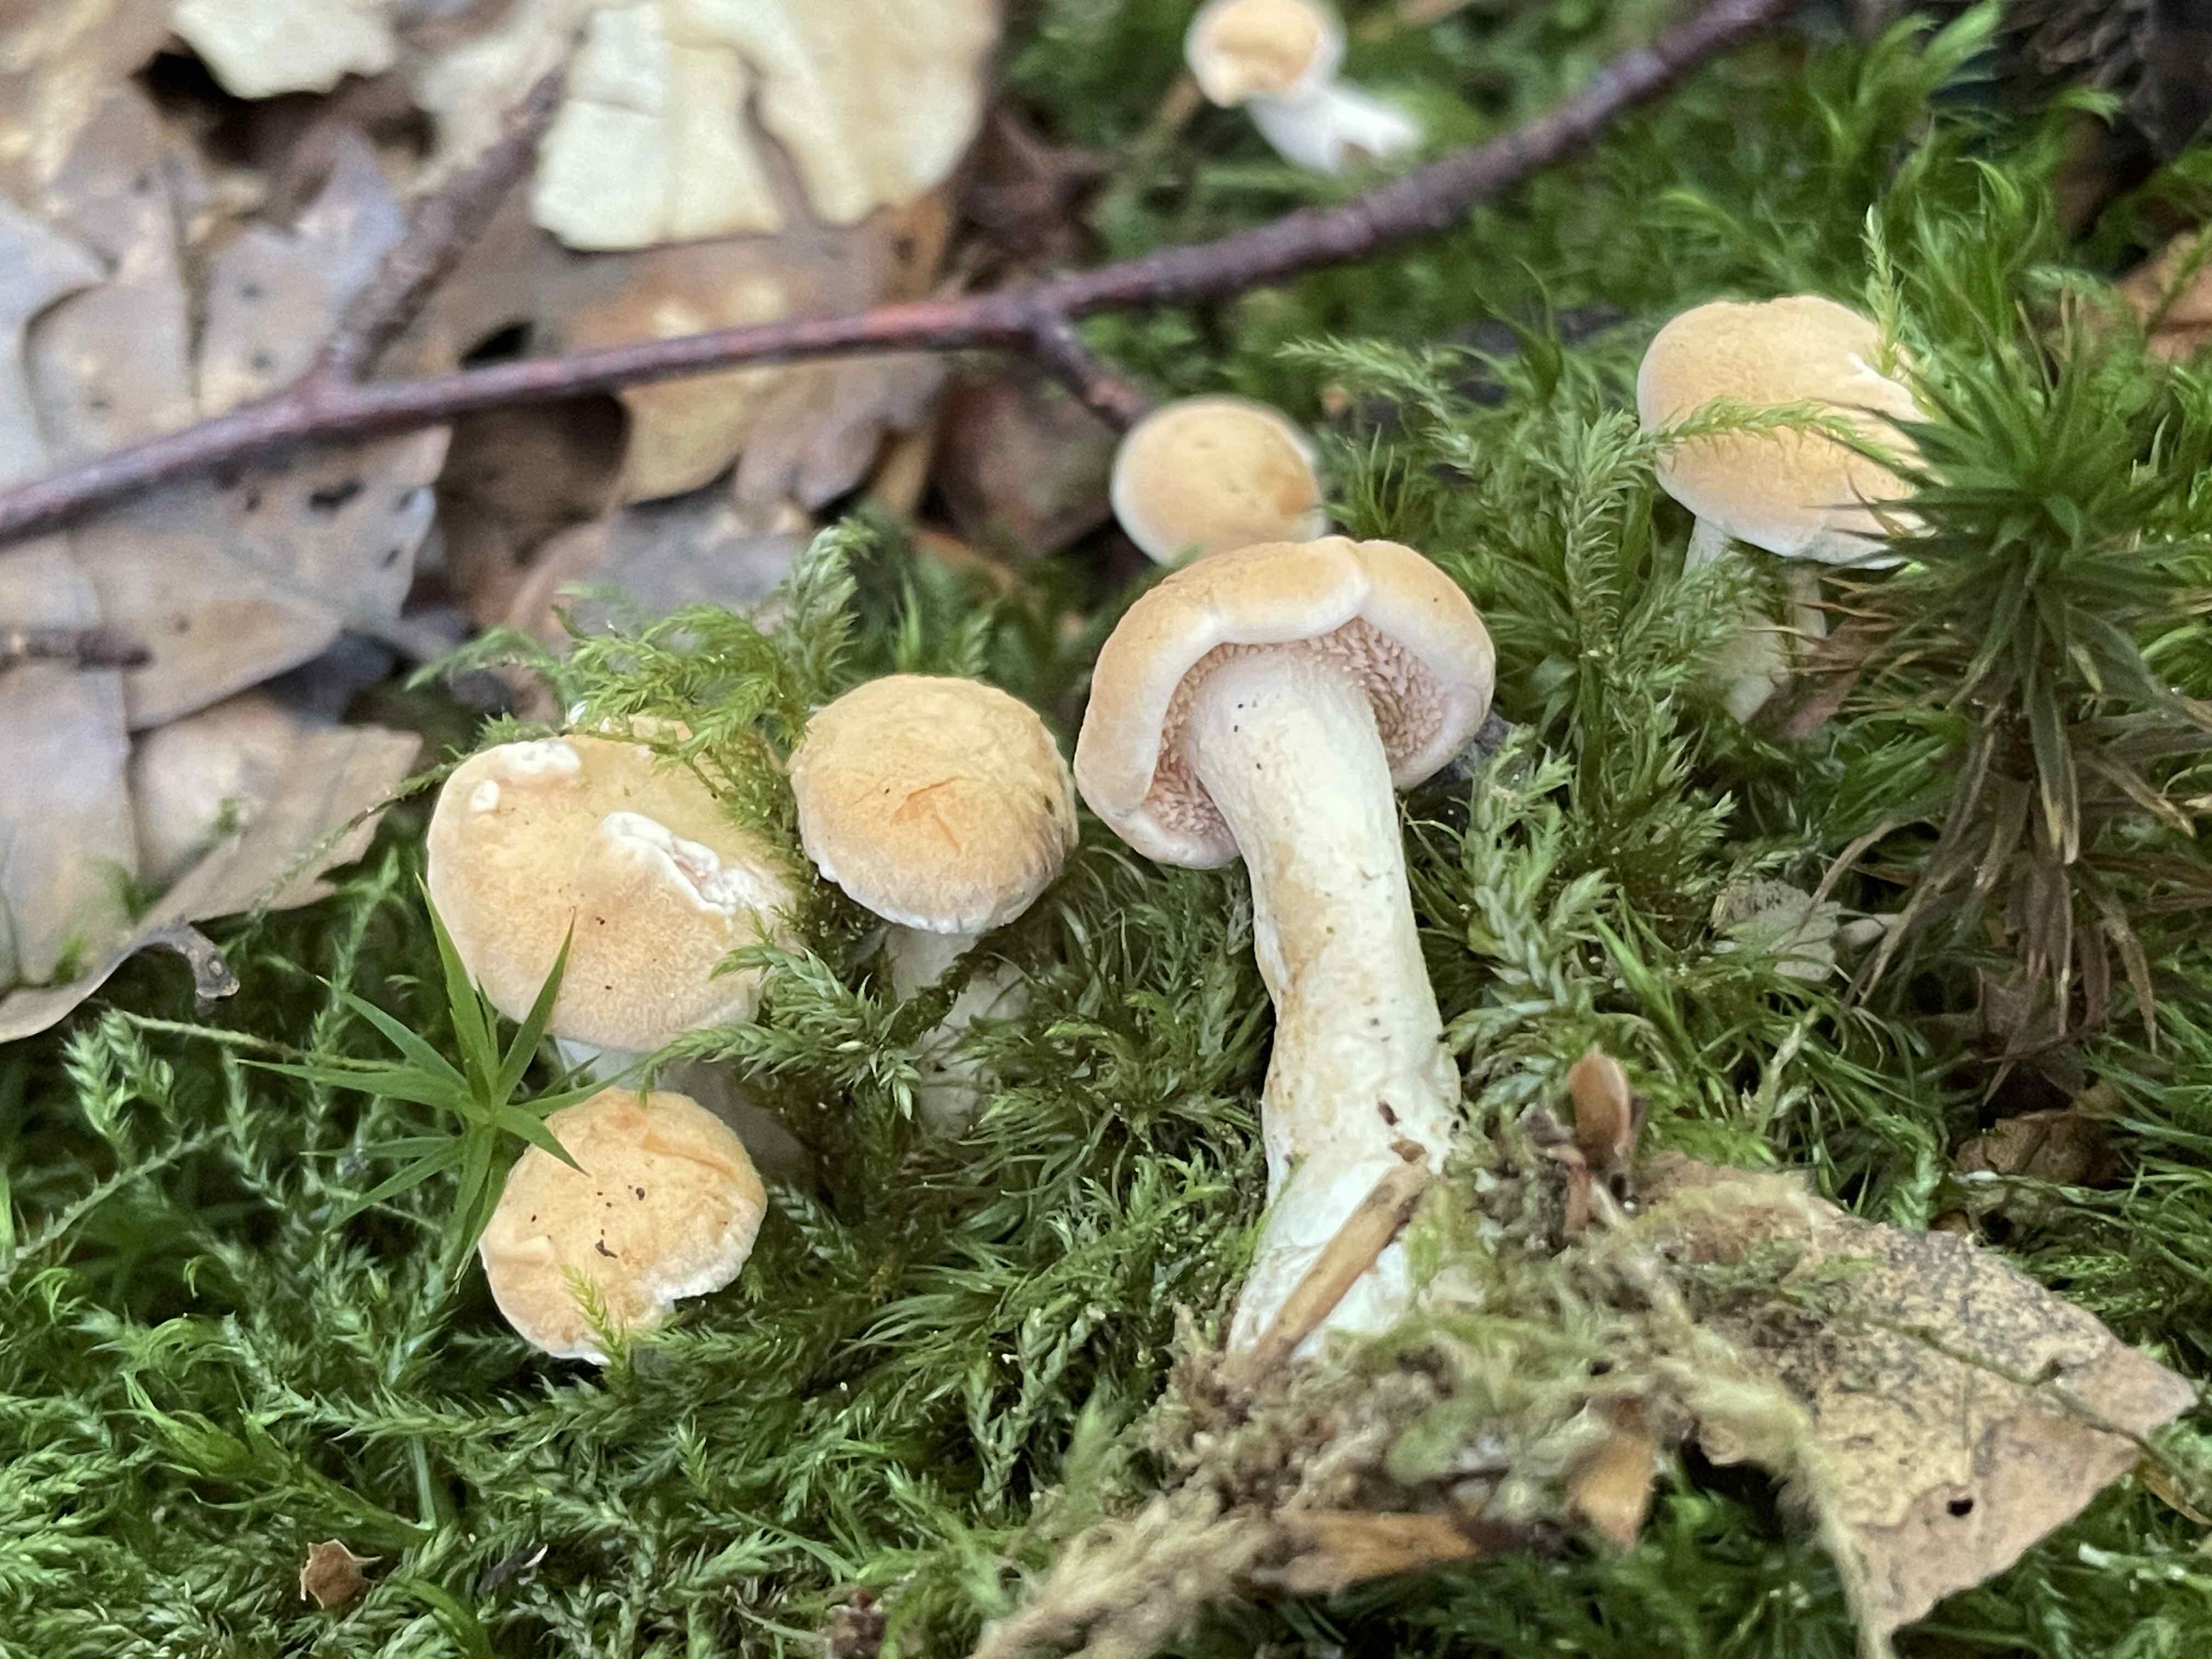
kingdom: Fungi
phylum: Basidiomycota
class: Agaricomycetes
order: Cantharellales
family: Hydnaceae
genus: Hydnum
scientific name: Hydnum
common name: pigsvamp
